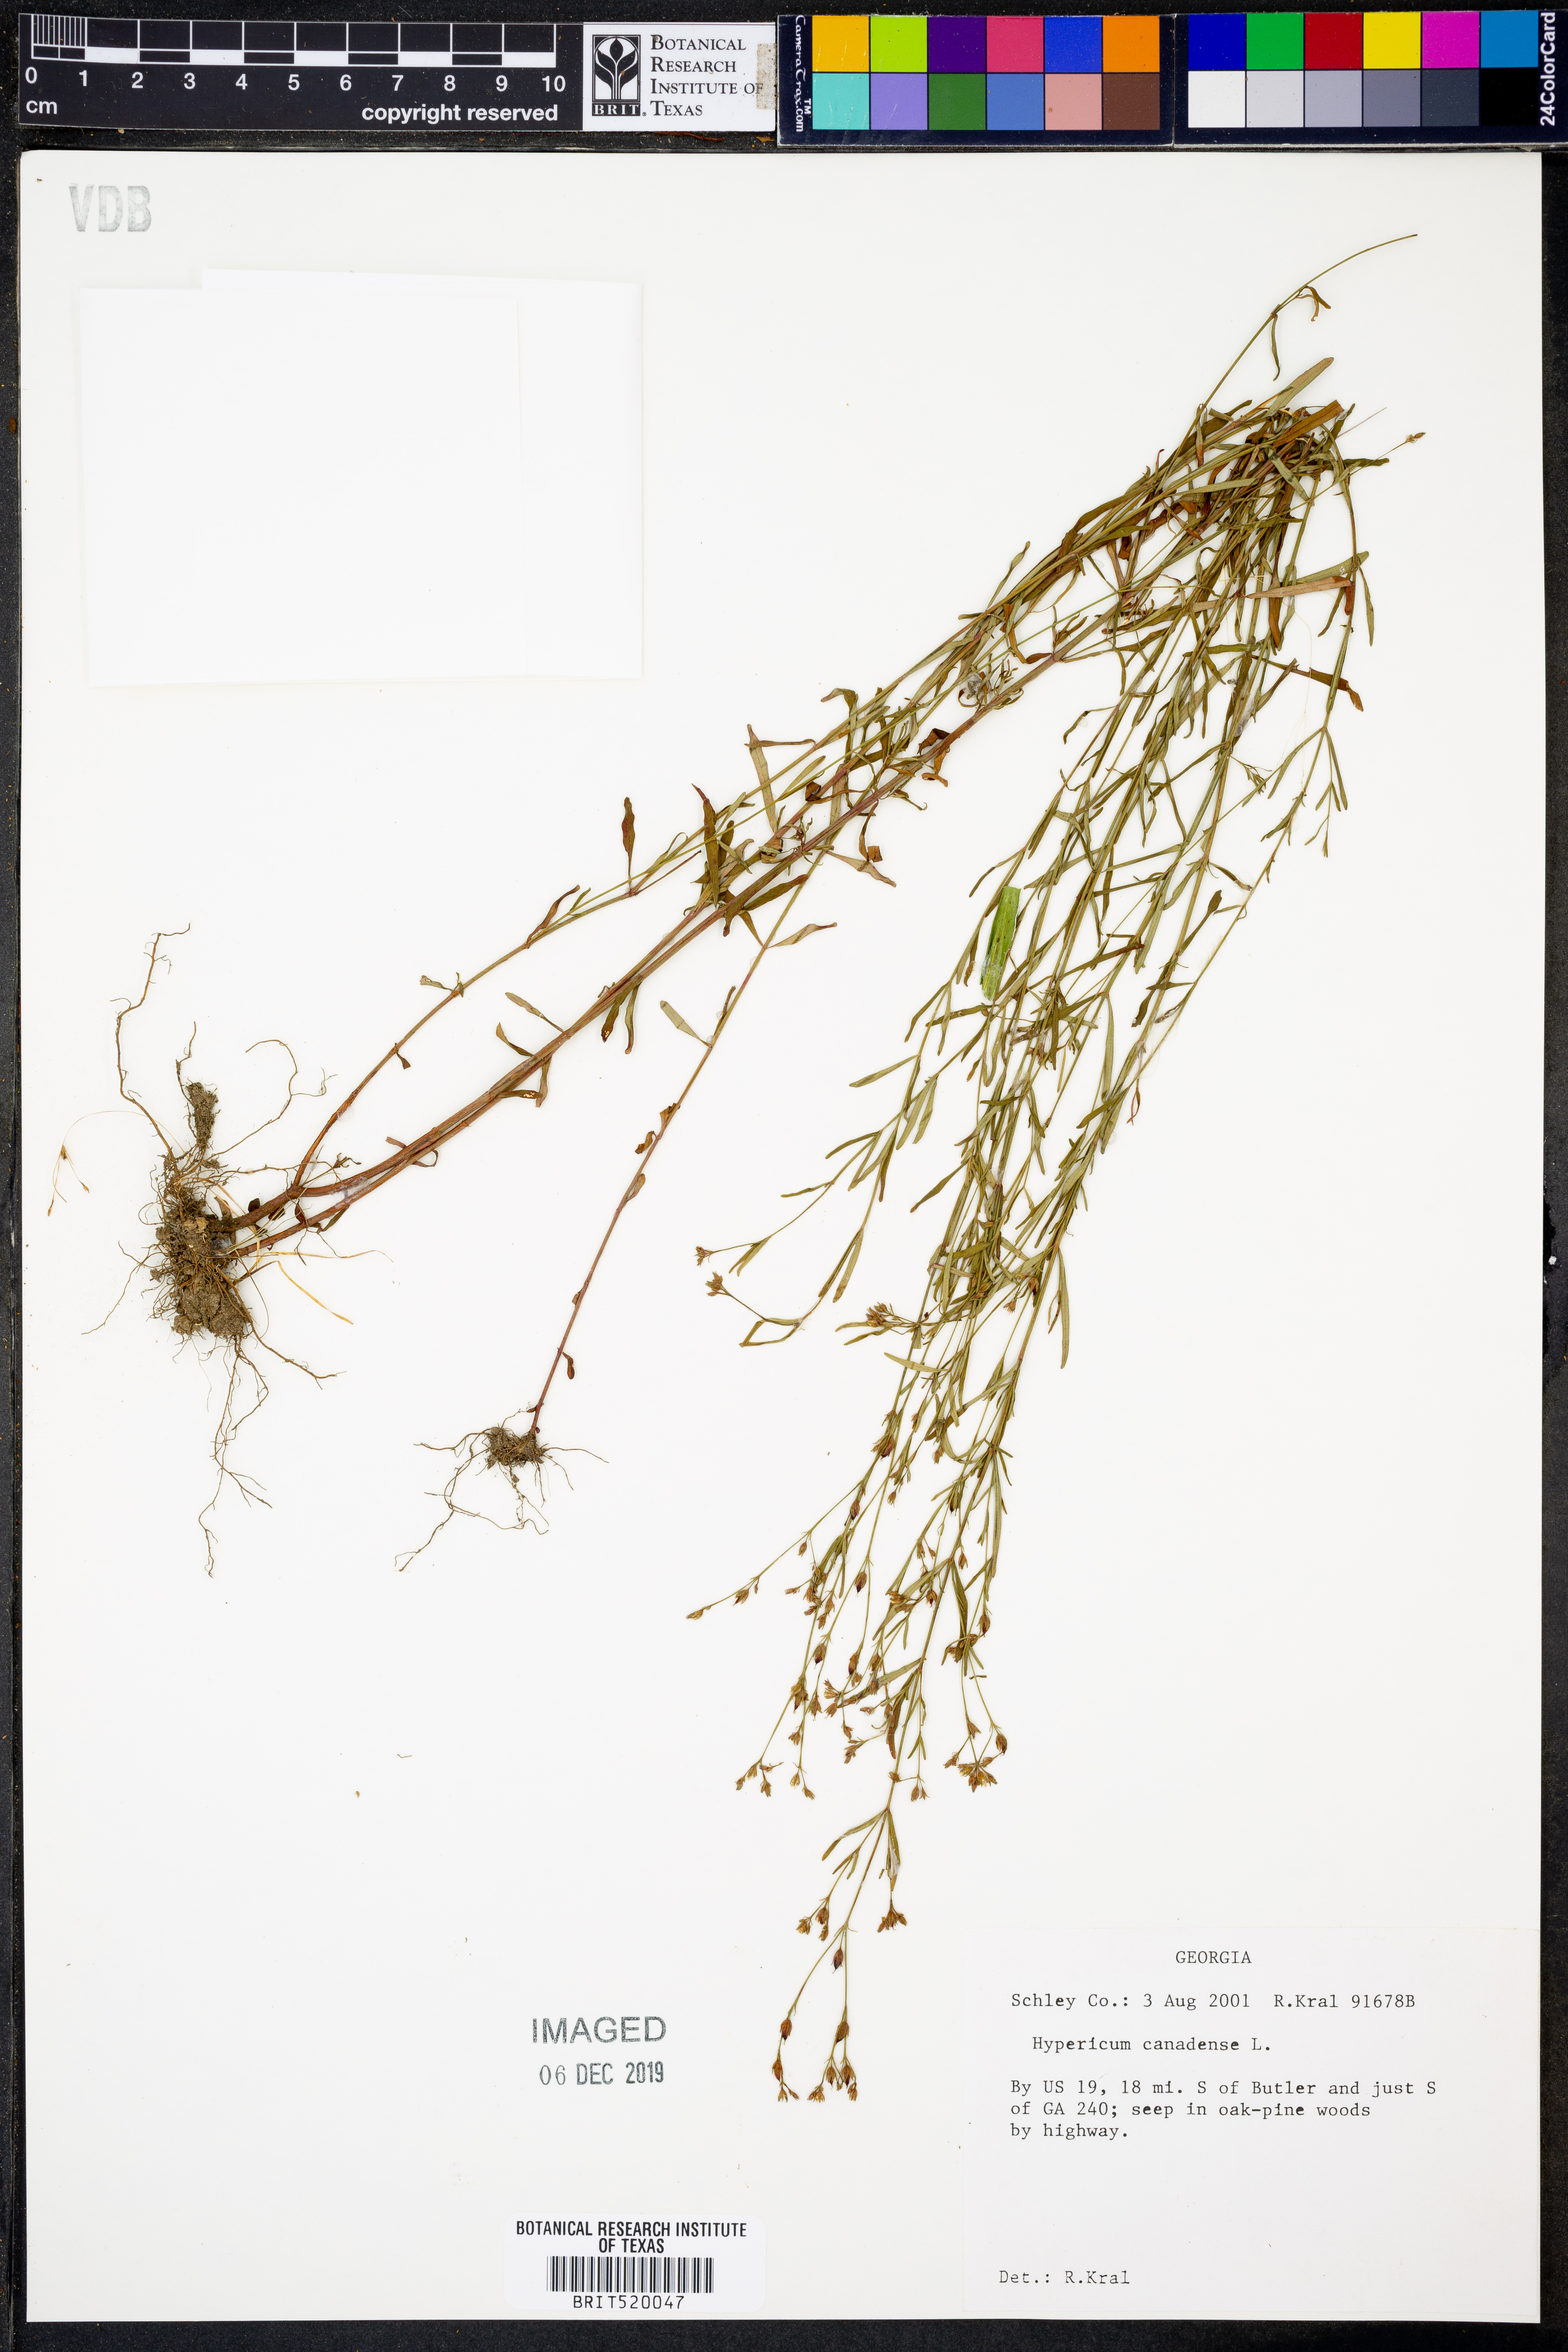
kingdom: Plantae
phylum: Tracheophyta
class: Magnoliopsida
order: Malpighiales
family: Hypericaceae
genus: Hypericum
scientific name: Hypericum canadense
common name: Irish st. john's-wort
